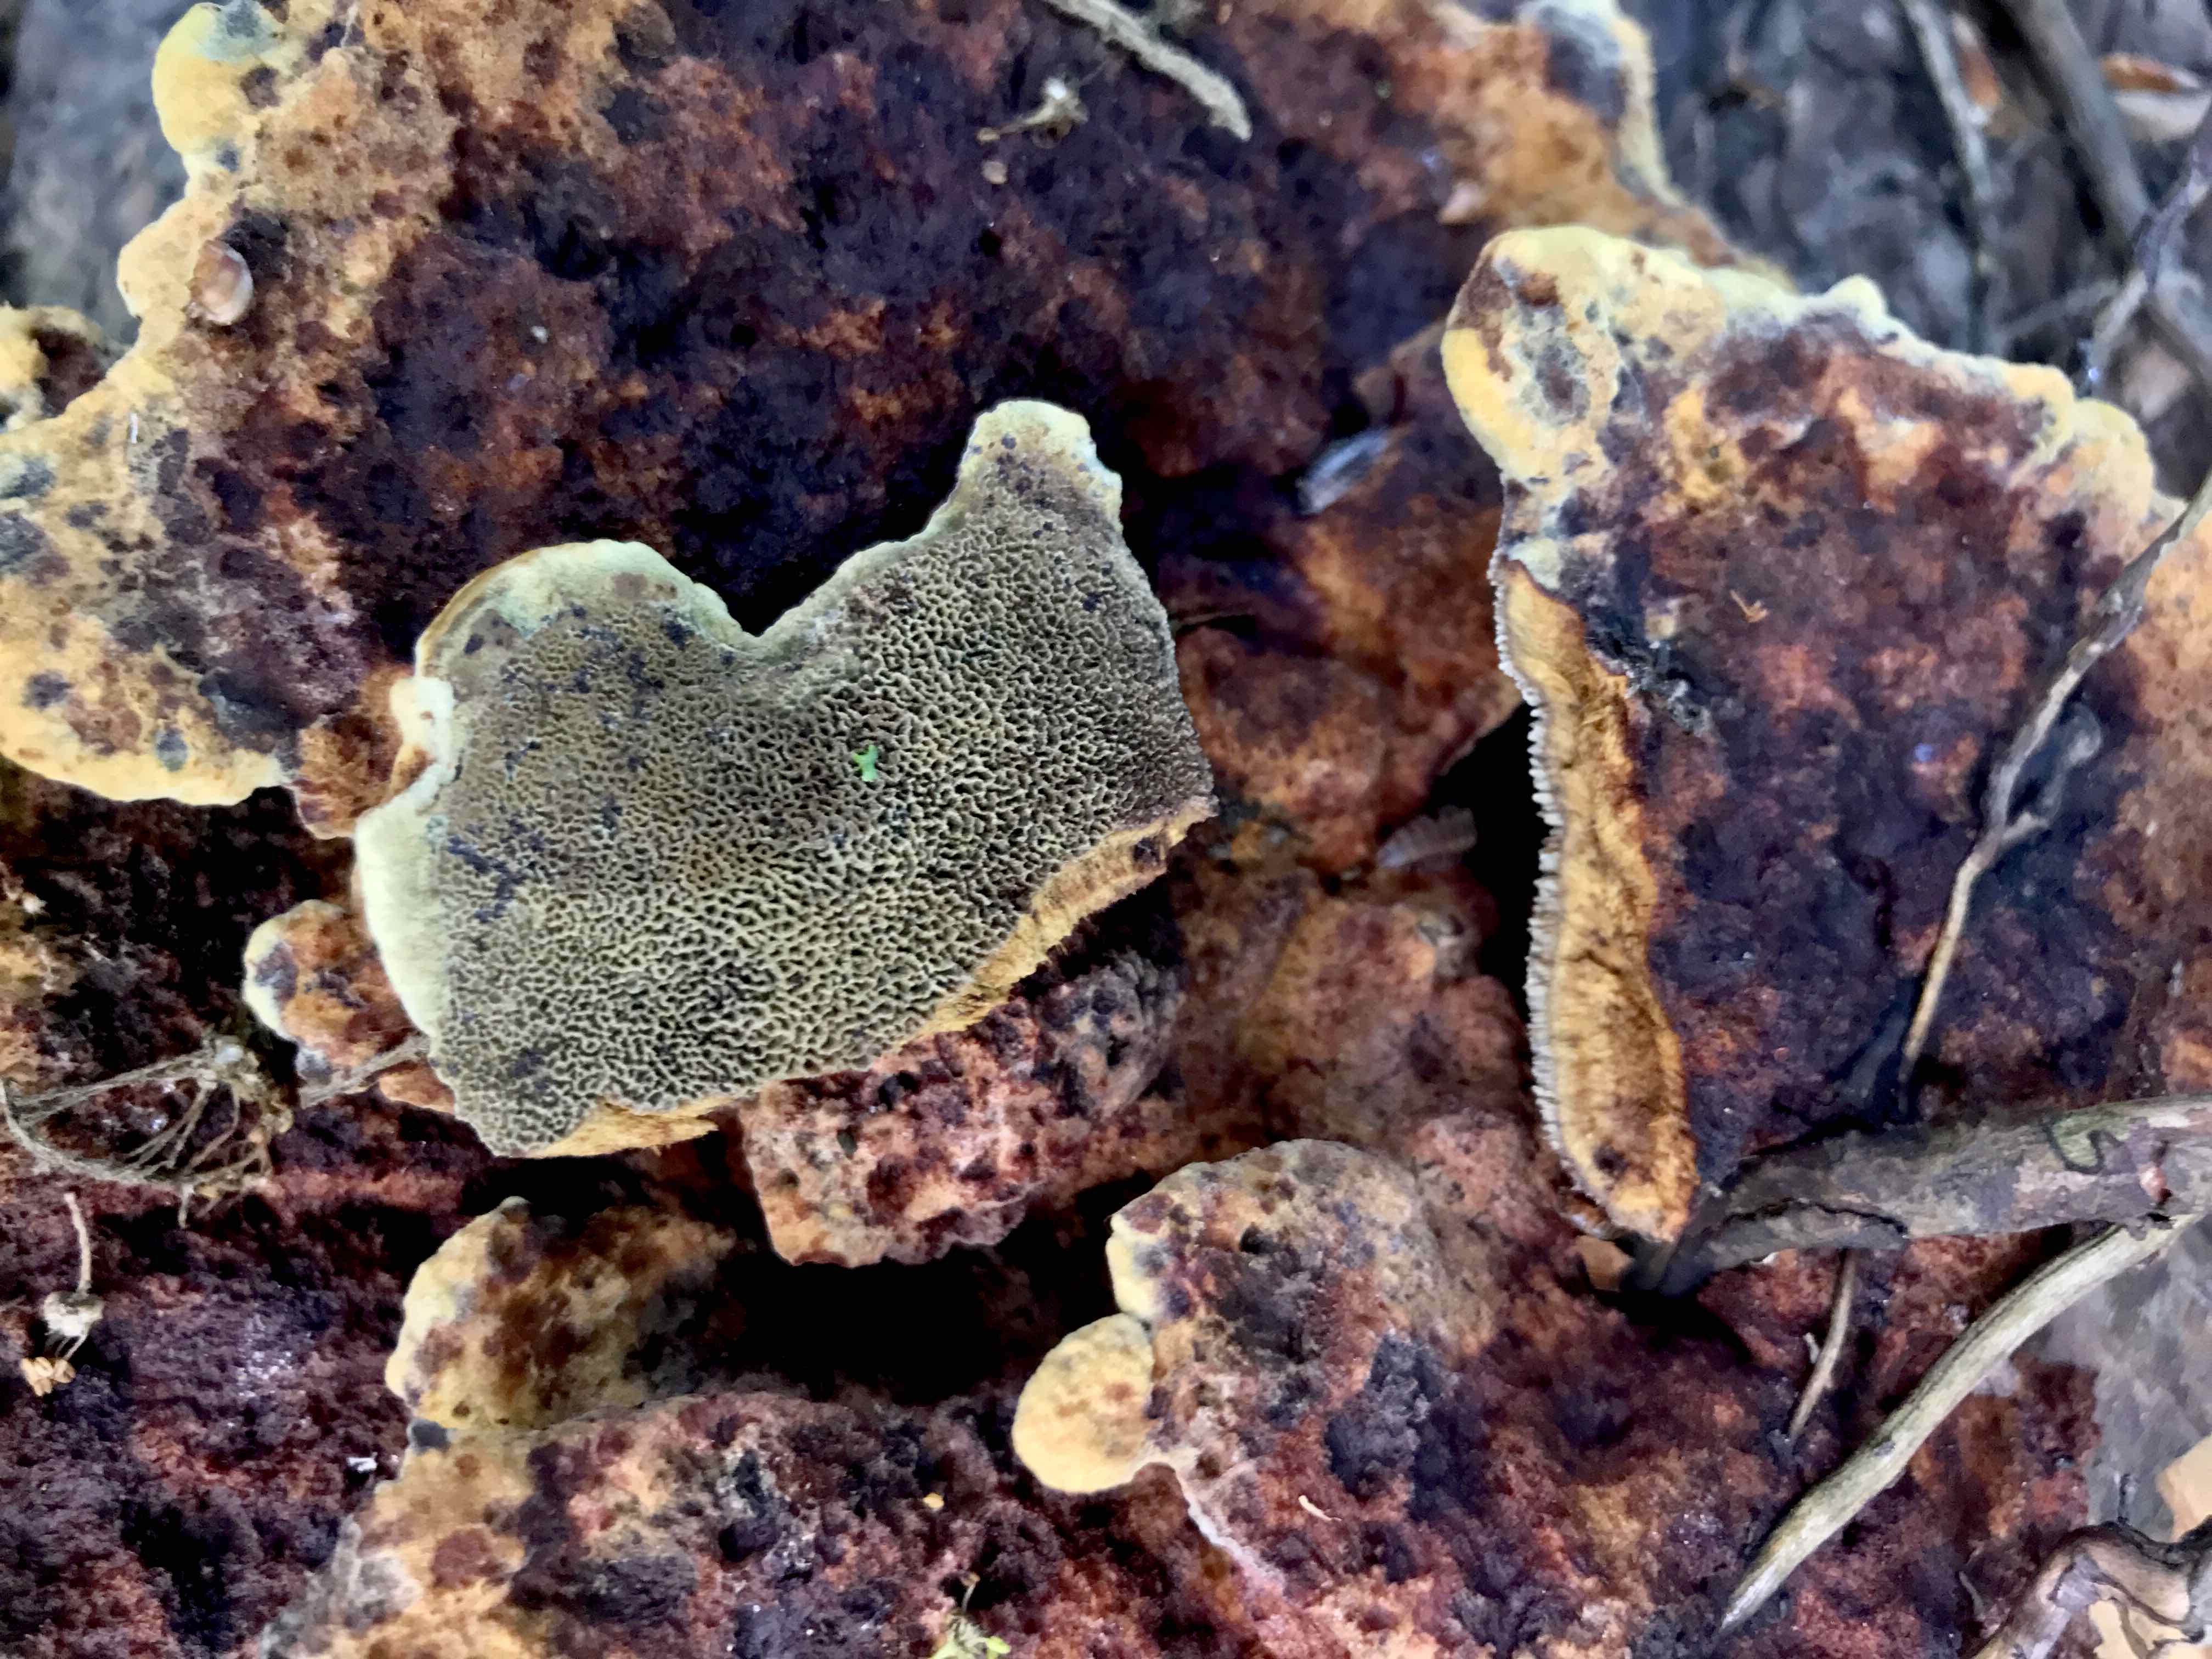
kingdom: Fungi
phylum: Basidiomycota
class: Agaricomycetes
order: Polyporales
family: Laetiporaceae
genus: Phaeolus
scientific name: Phaeolus schweinitzii
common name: brunporesvamp
